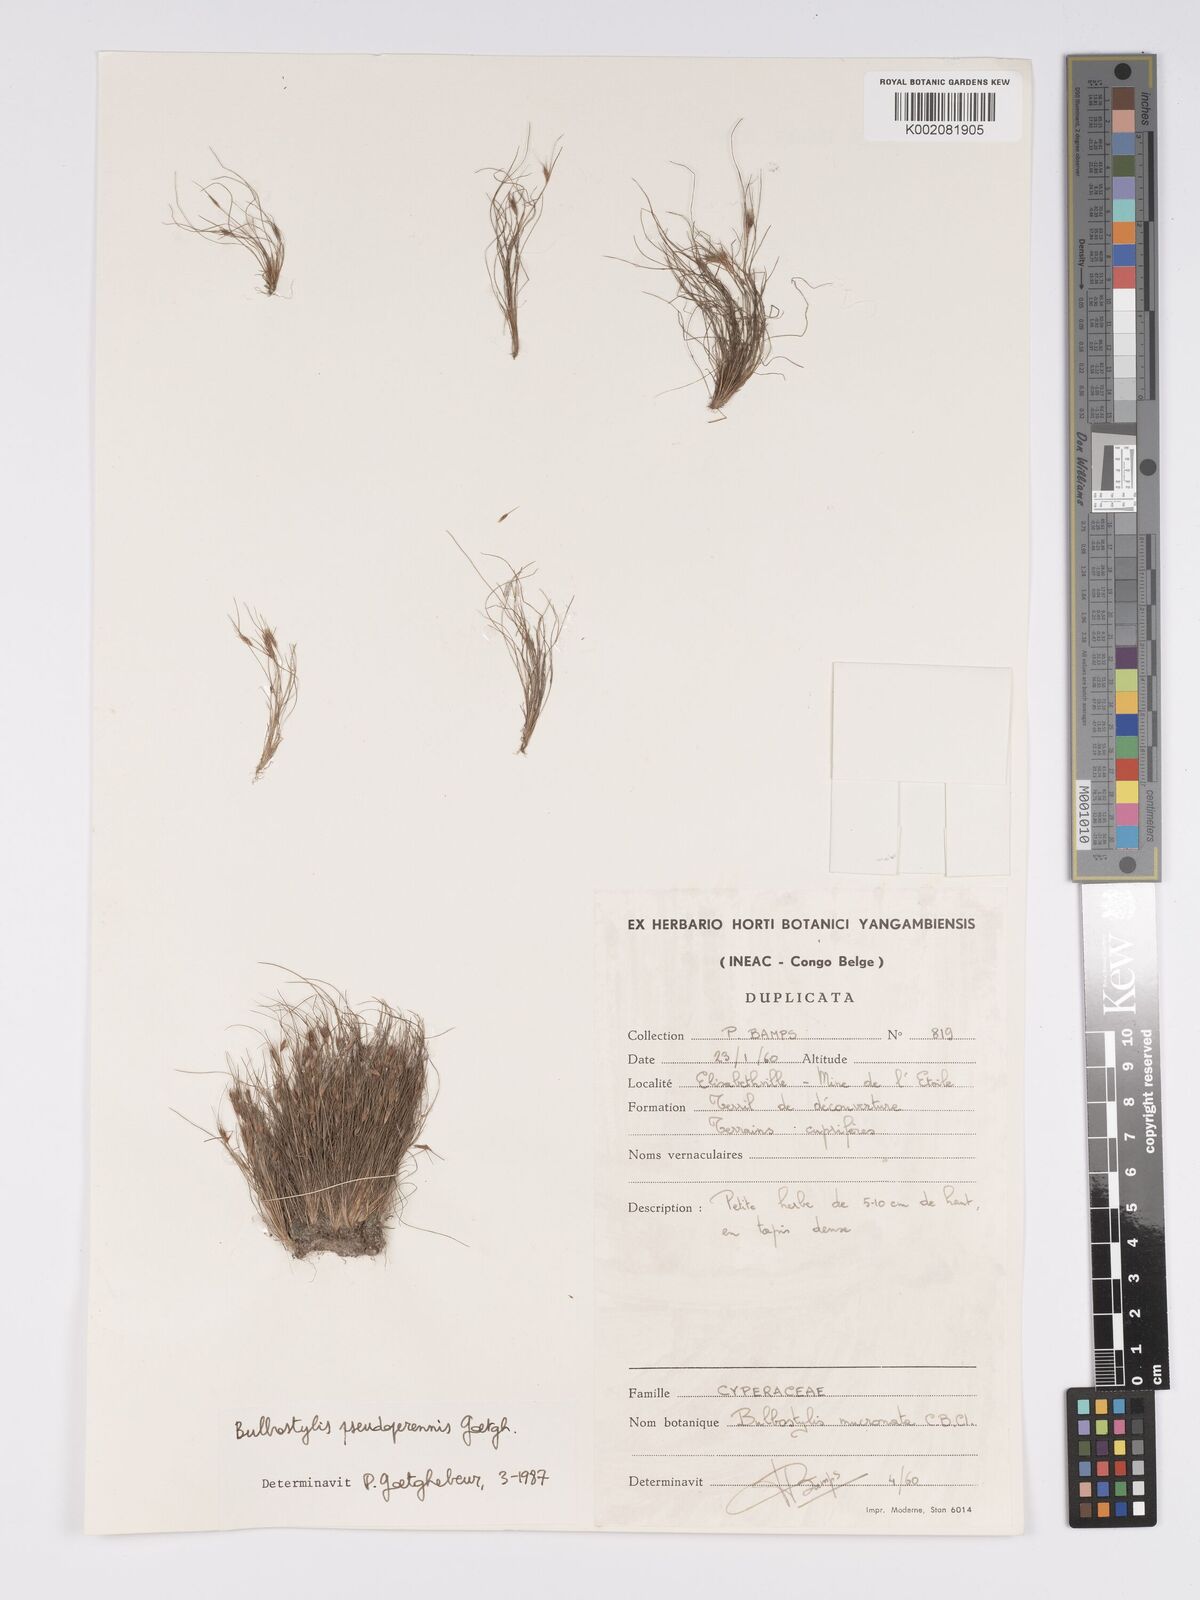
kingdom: Plantae
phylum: Tracheophyta
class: Liliopsida
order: Poales
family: Cyperaceae
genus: Bulbostylis
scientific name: Bulbostylis abbreviata
